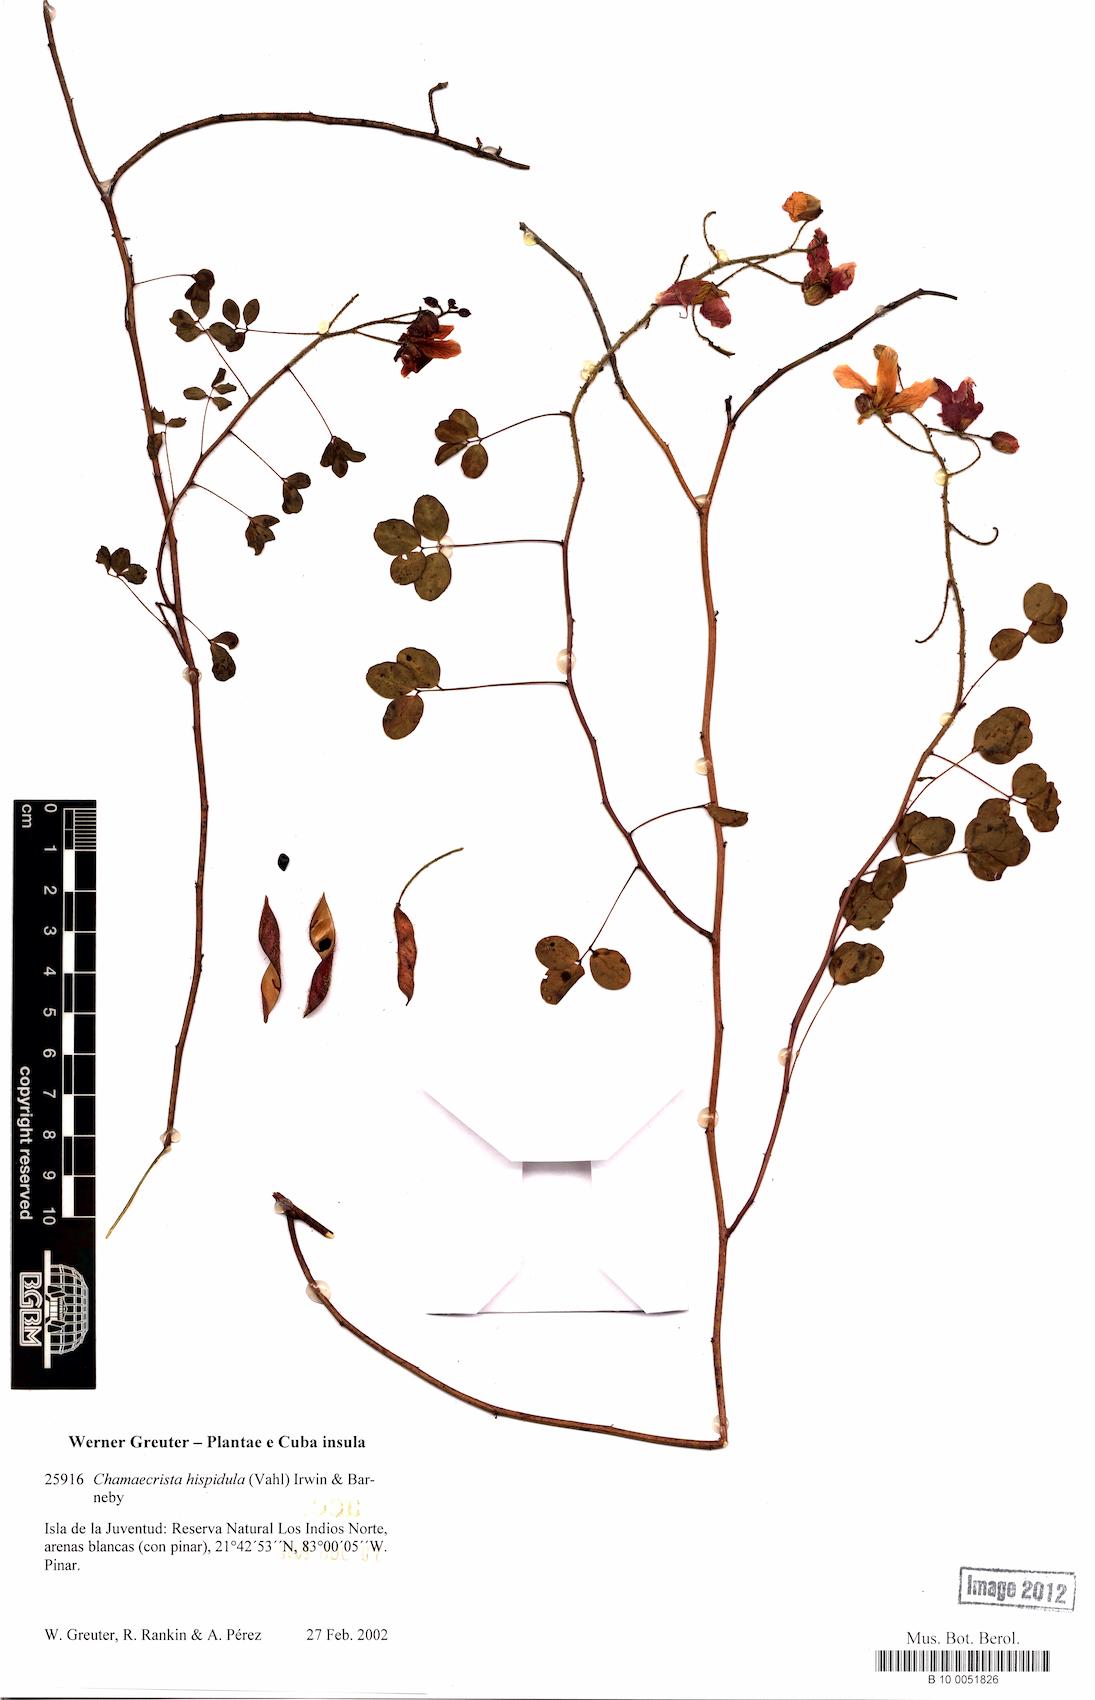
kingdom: Plantae
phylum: Tracheophyta
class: Magnoliopsida
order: Fabales
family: Fabaceae
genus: Chamaecrista
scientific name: Chamaecrista hispidula
